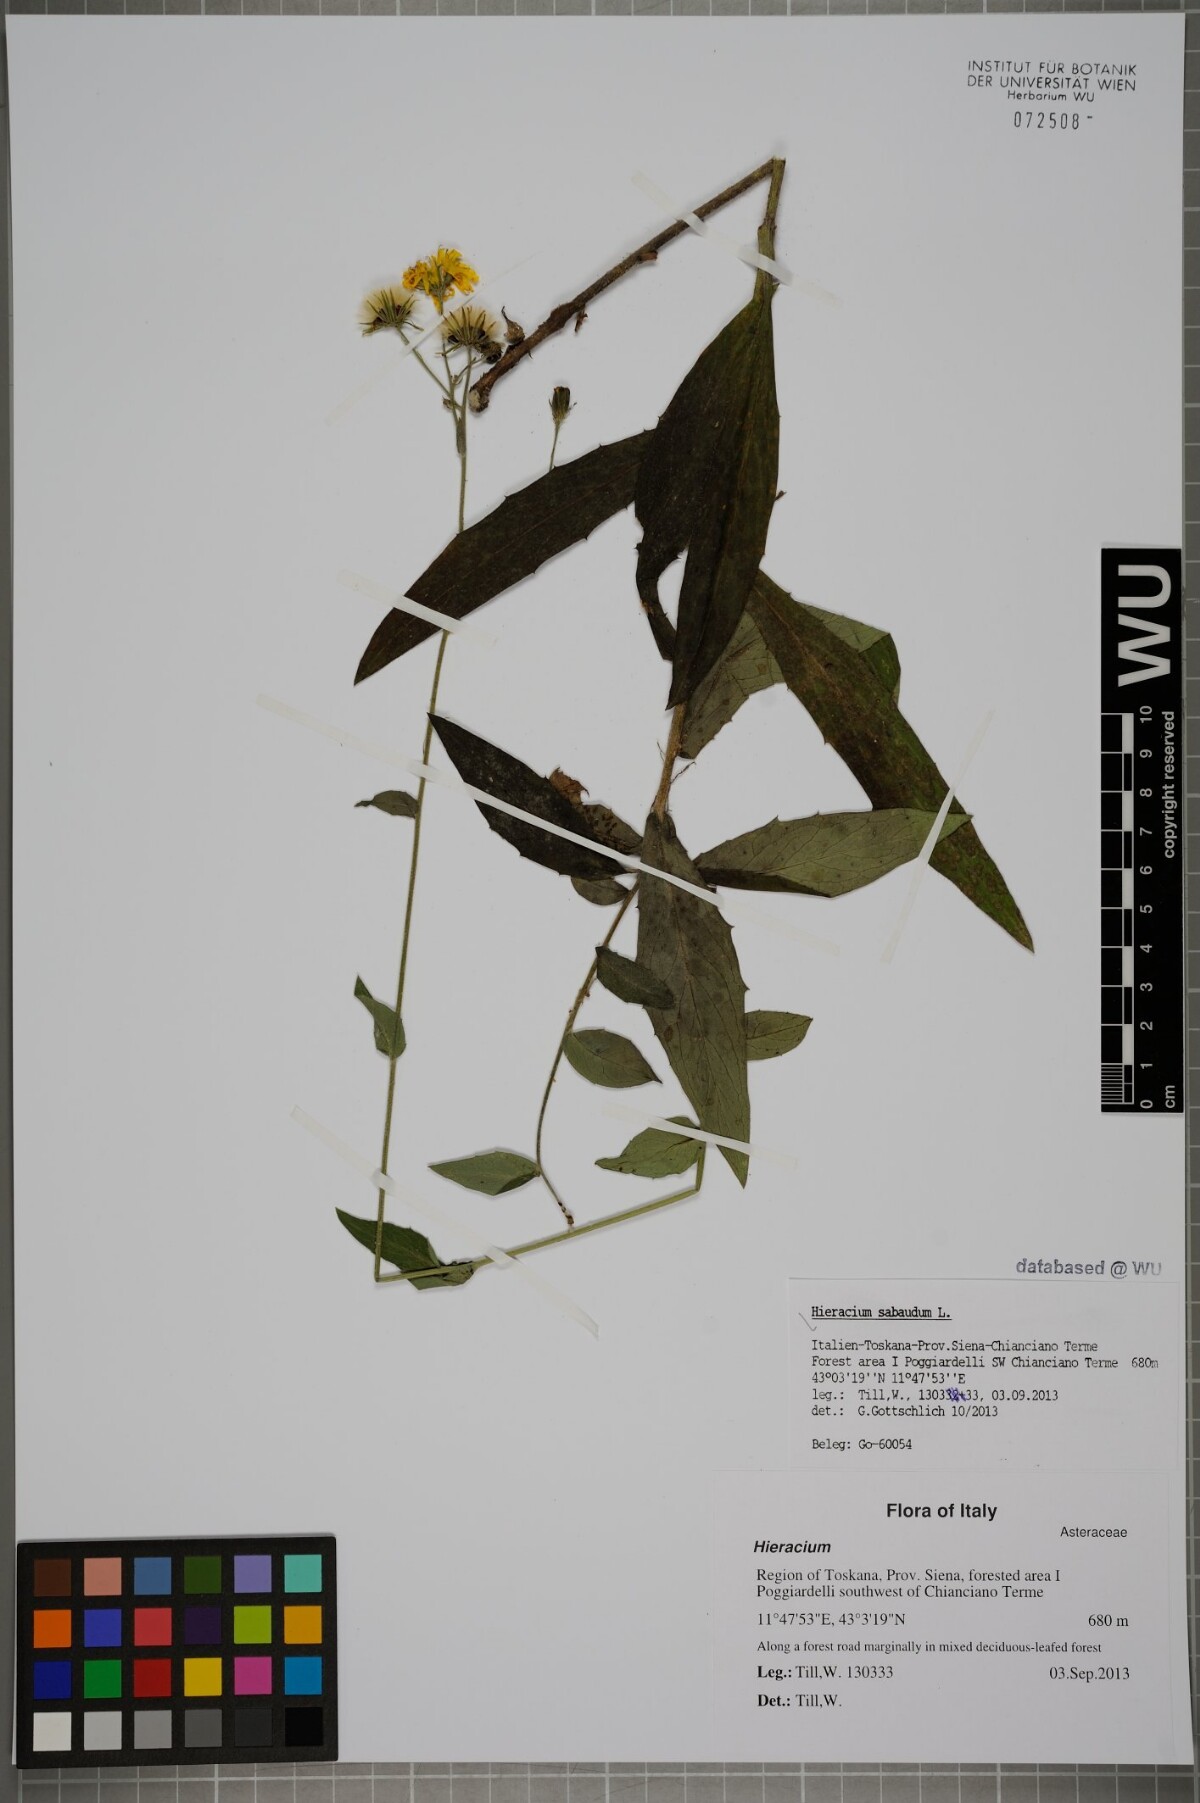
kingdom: Plantae
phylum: Tracheophyta
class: Magnoliopsida
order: Asterales
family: Asteraceae
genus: Hieracium
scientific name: Hieracium sabaudum
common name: New england hawkweed
